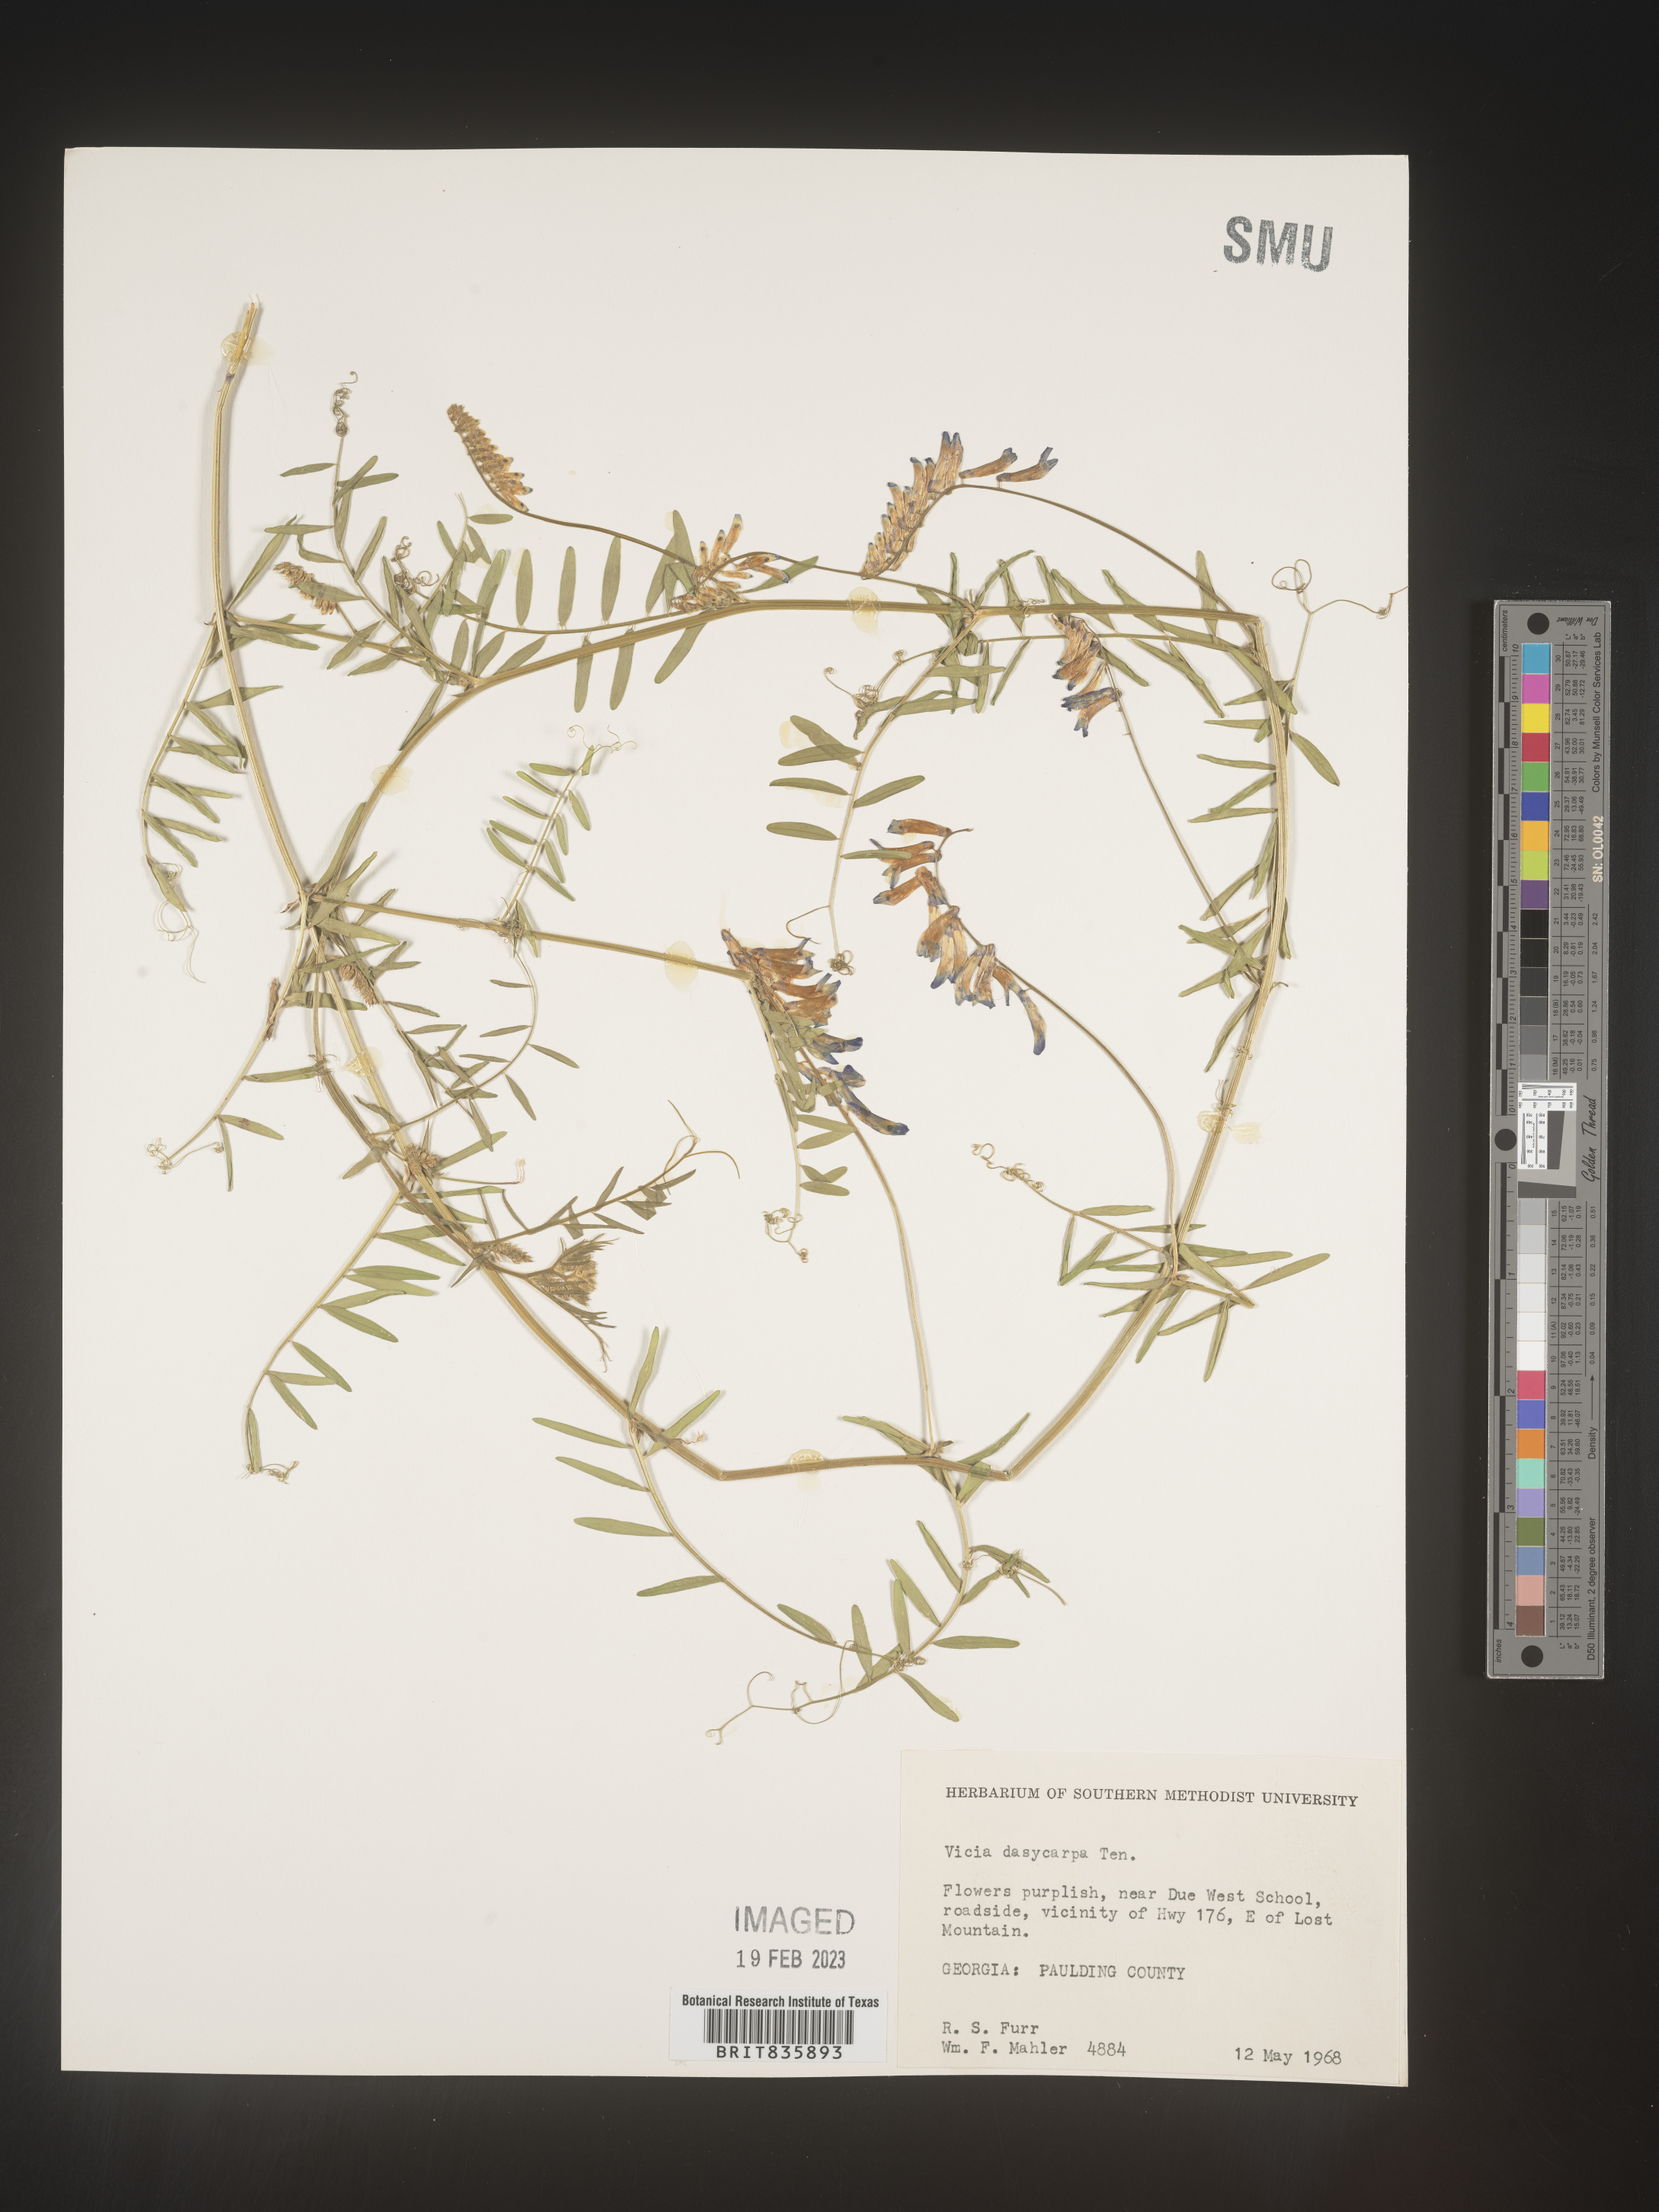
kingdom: Plantae
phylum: Tracheophyta
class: Magnoliopsida
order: Fabales
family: Fabaceae
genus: Vicia
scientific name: Vicia villosa
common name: Fodder vetch
